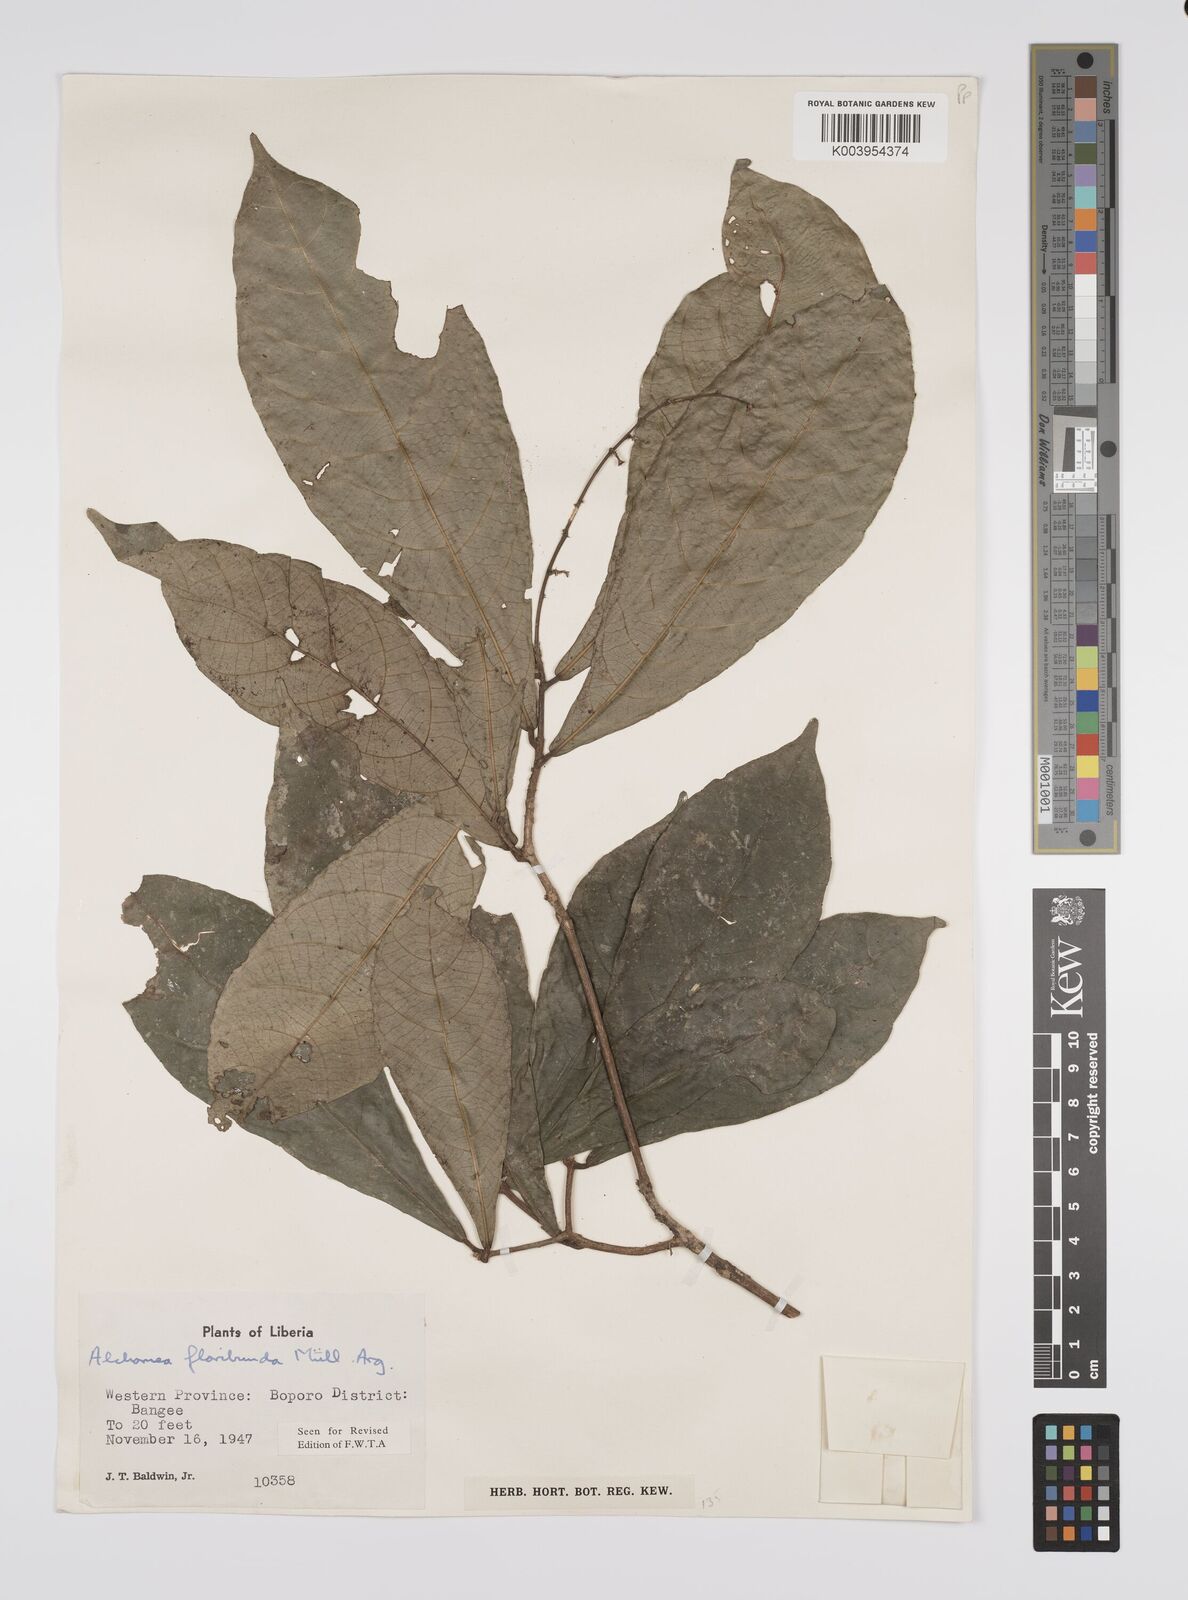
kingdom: Plantae
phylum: Tracheophyta
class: Magnoliopsida
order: Malpighiales
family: Euphorbiaceae
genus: Alchornea
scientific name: Alchornea floribunda
